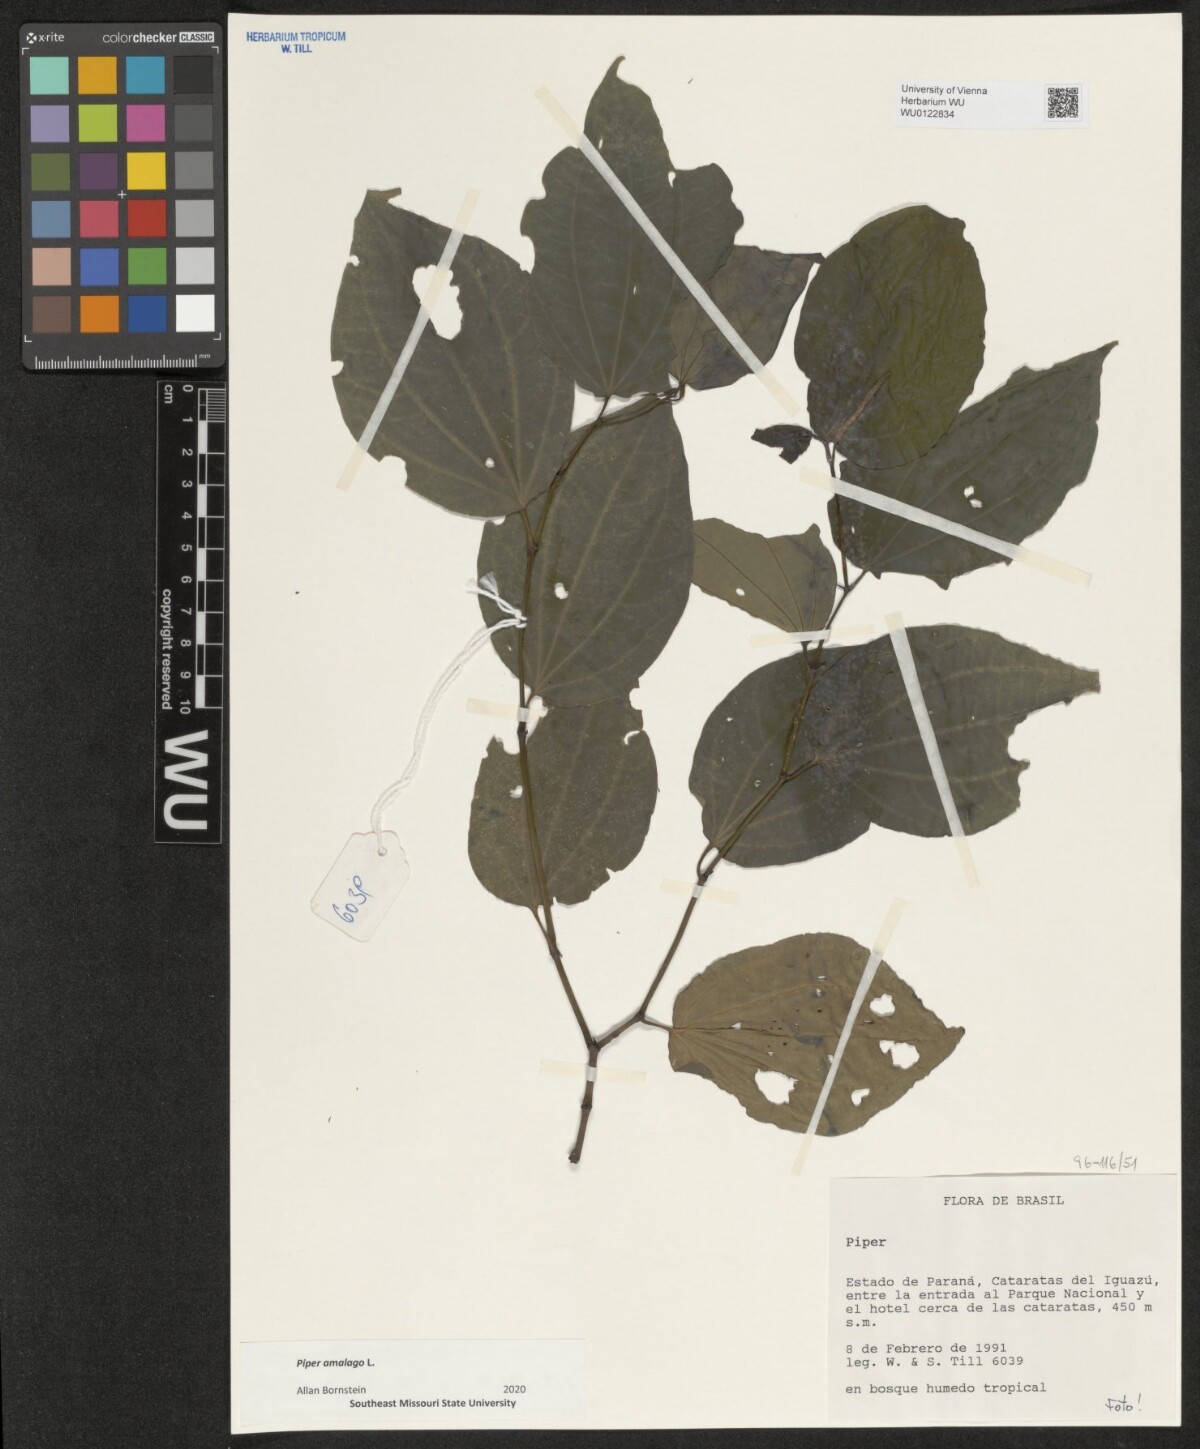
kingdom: Plantae
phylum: Tracheophyta
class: Magnoliopsida
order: Piperales
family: Piperaceae
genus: Piper
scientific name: Piper amalago
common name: Pepper-elder
